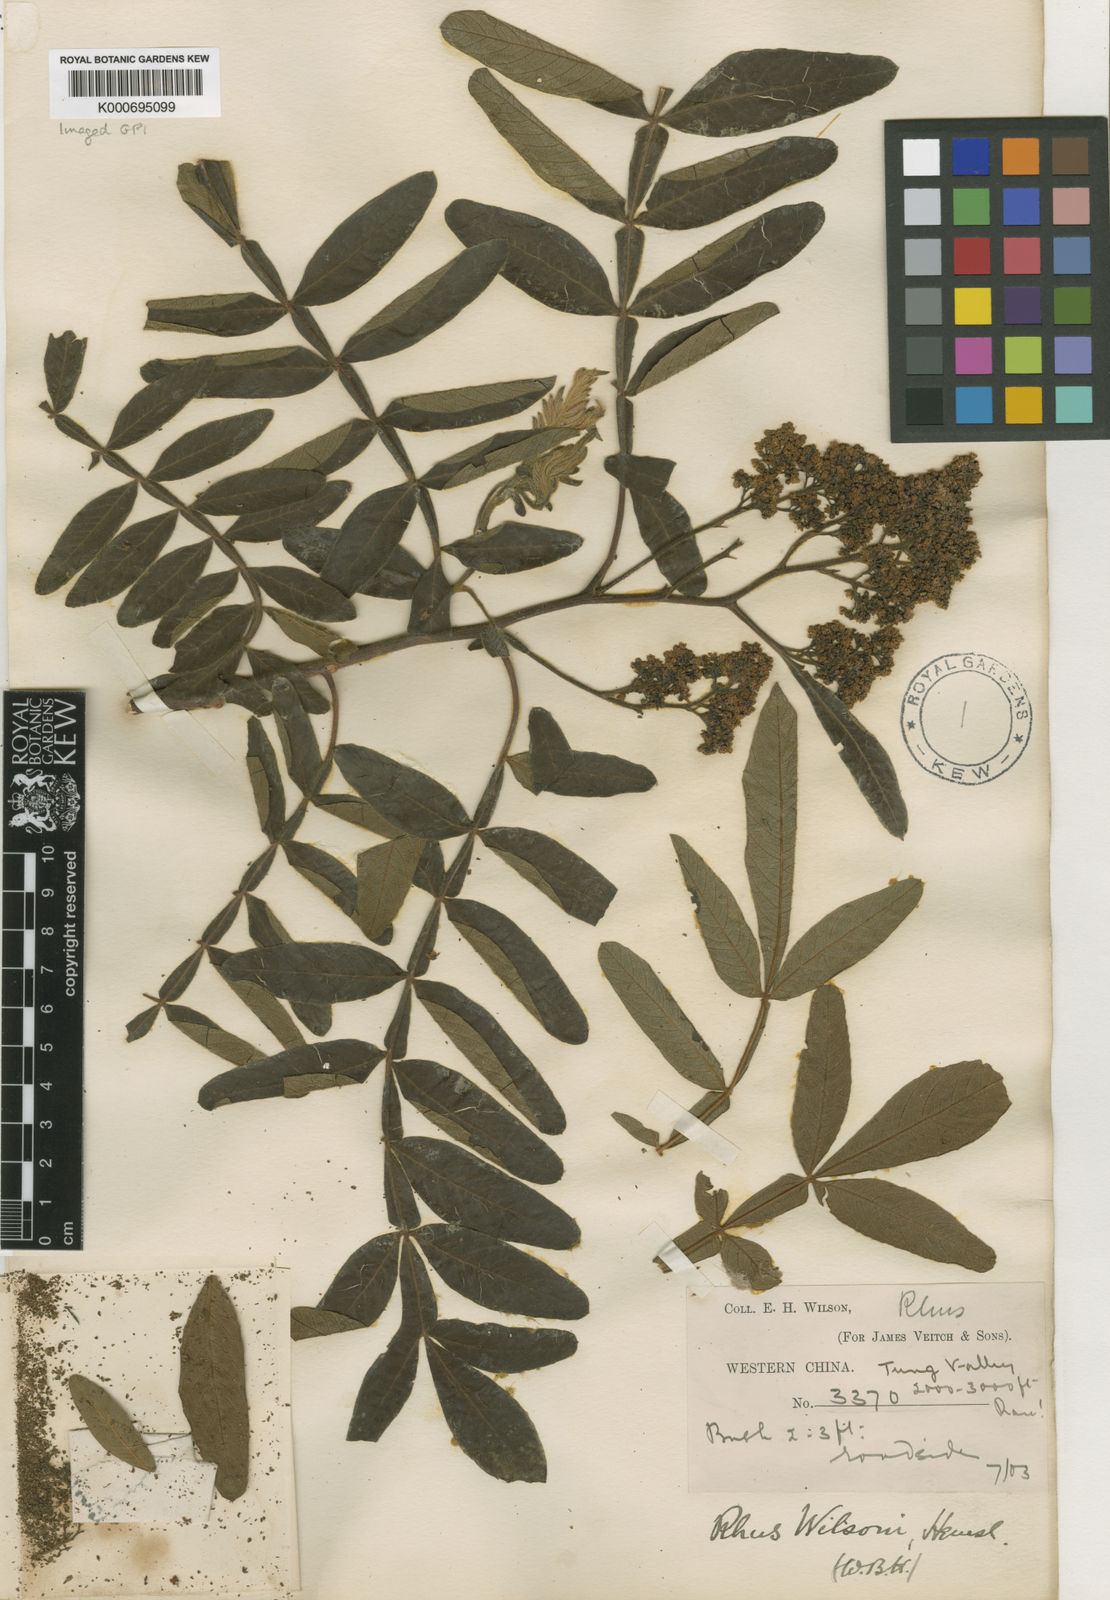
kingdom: Plantae
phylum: Tracheophyta
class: Magnoliopsida
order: Sapindales
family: Anacardiaceae
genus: Rhus
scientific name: Rhus wilsonii
